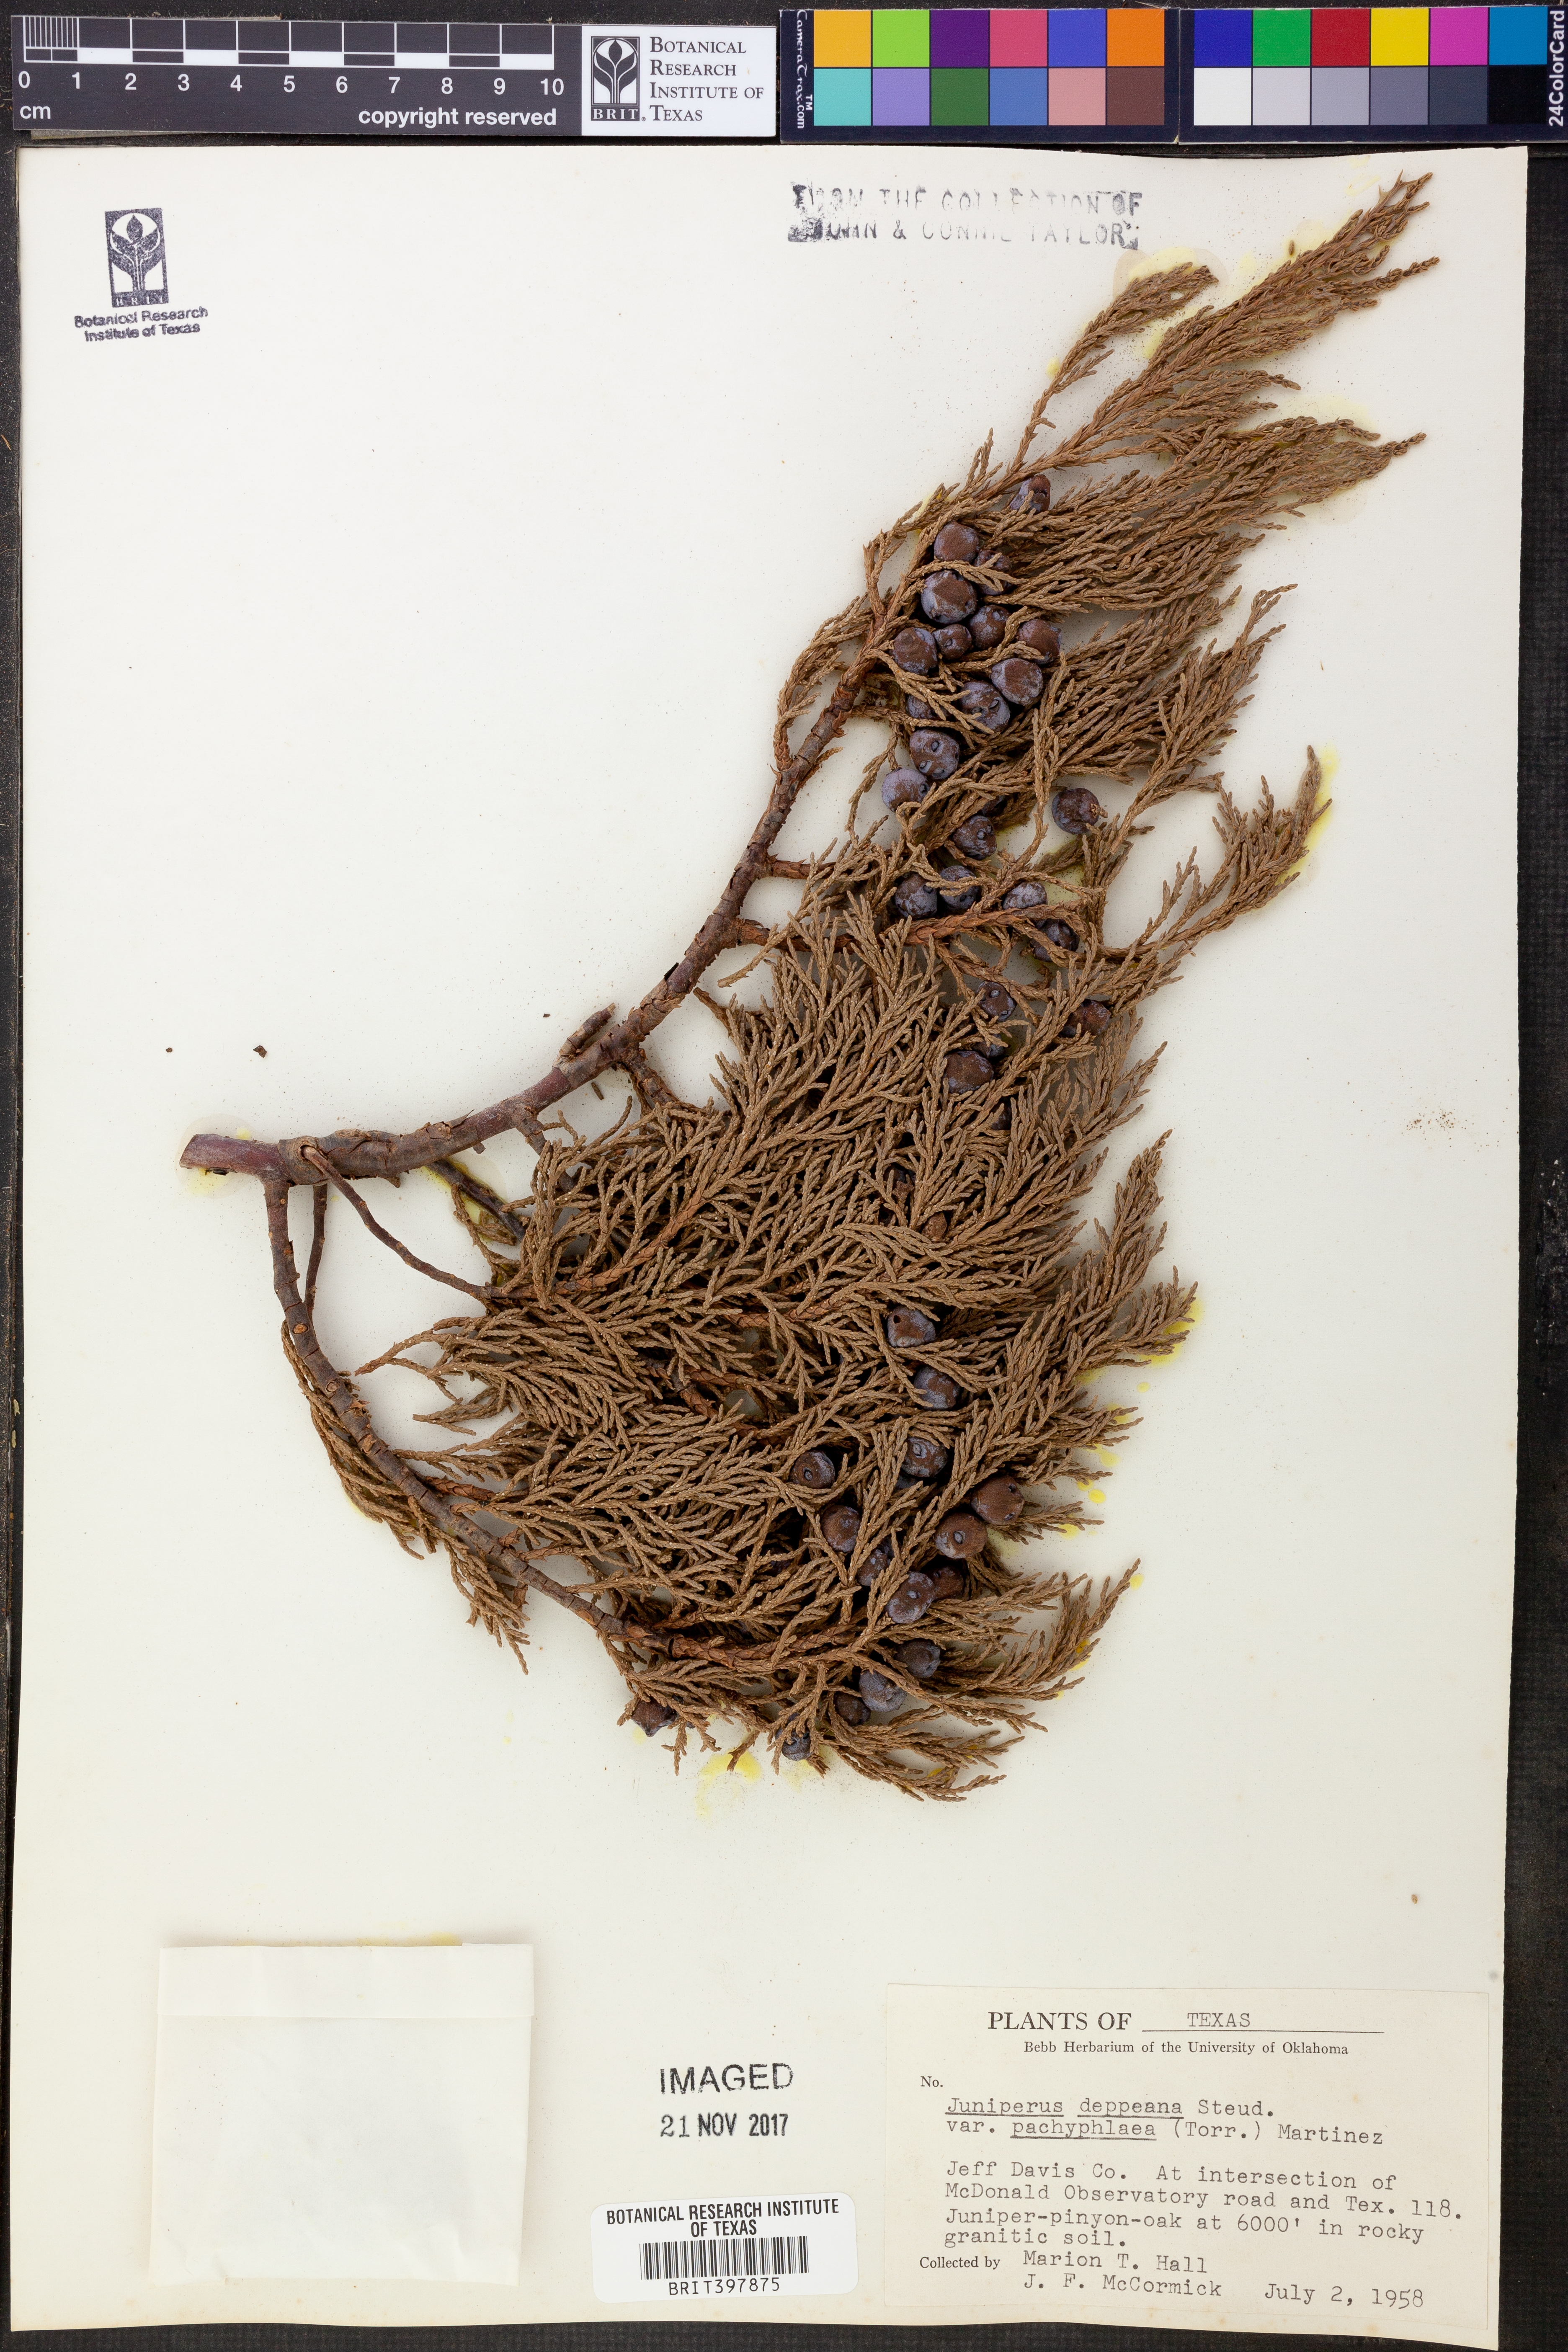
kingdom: Plantae
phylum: Tracheophyta
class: Pinopsida
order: Pinales
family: Cupressaceae
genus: Juniperus
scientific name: Juniperus deppeana
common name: Alligator juniper
